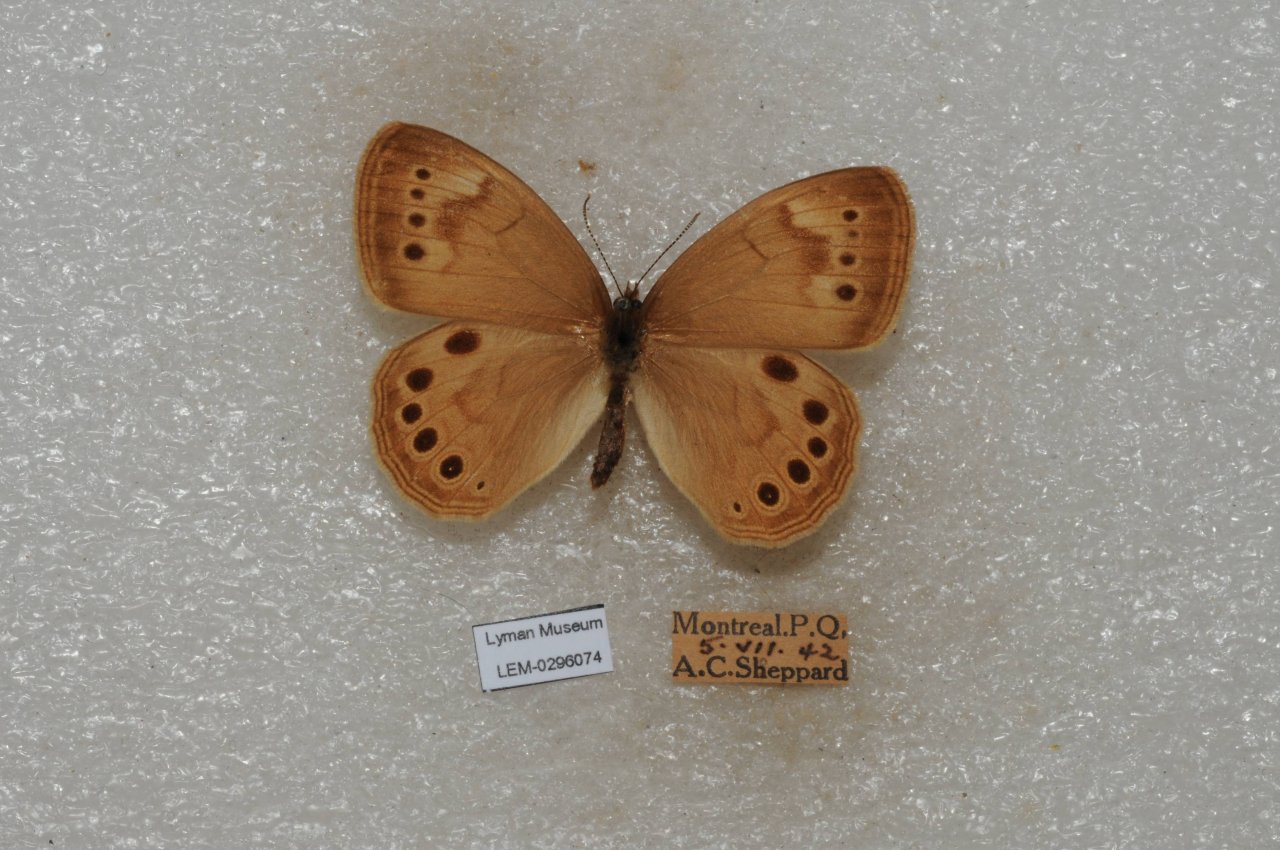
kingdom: Animalia
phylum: Arthropoda
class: Insecta
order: Lepidoptera
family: Nymphalidae
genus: Lethe
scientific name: Lethe eurydice
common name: Eyed Brown
